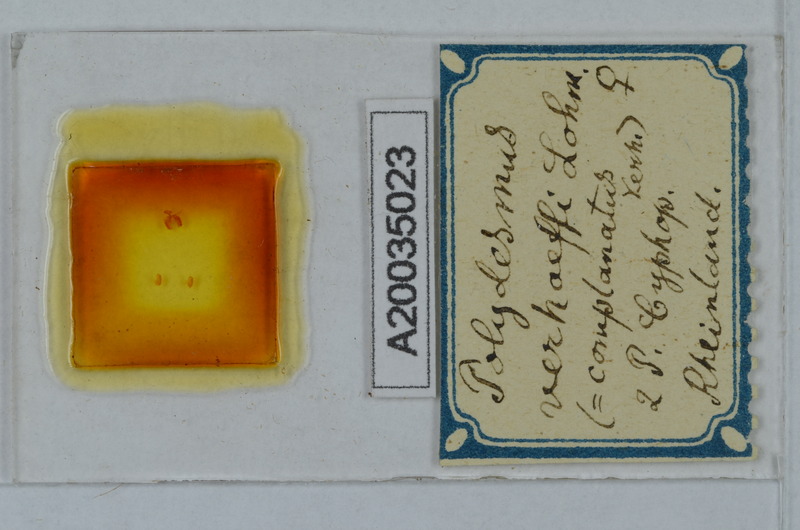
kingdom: Animalia
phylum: Arthropoda
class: Diplopoda
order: Polydesmida
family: Polydesmidae
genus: Polydesmus
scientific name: Polydesmus angustus
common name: Flat millipede
